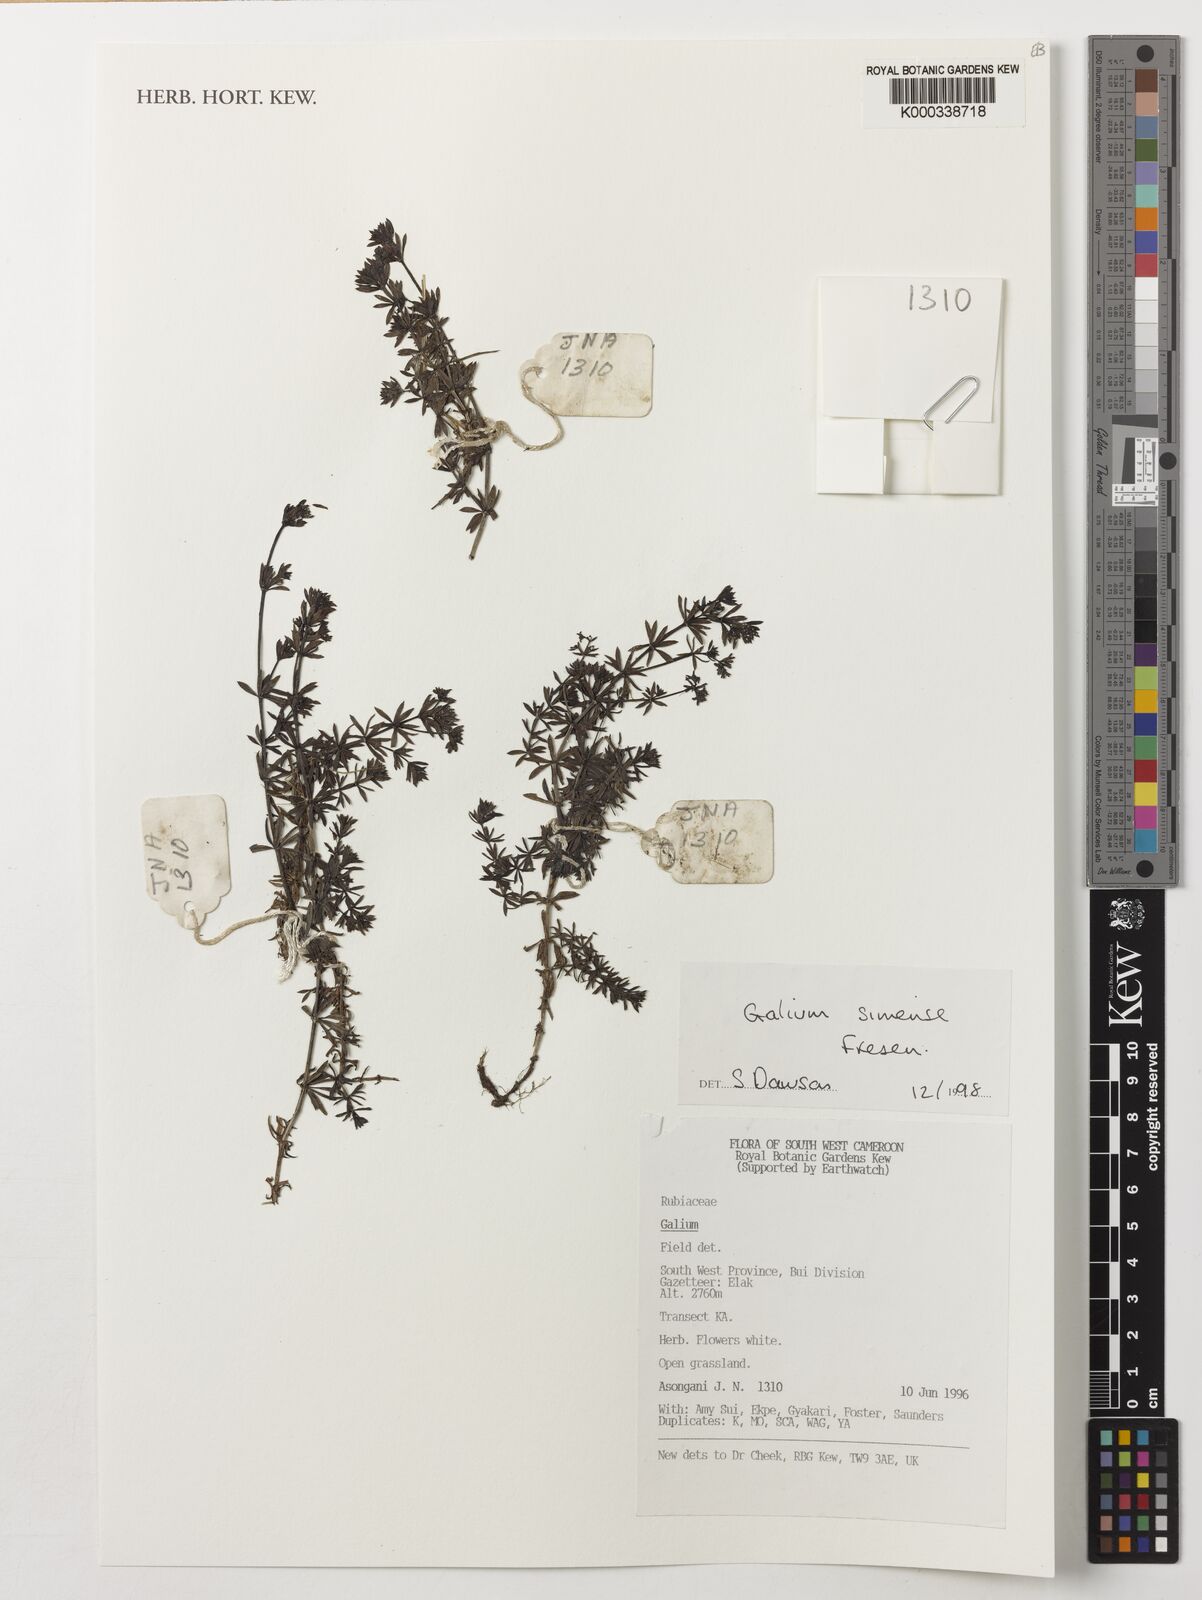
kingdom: Plantae
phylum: Tracheophyta
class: Magnoliopsida
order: Gentianales
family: Rubiaceae
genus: Galium
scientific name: Galium simense
